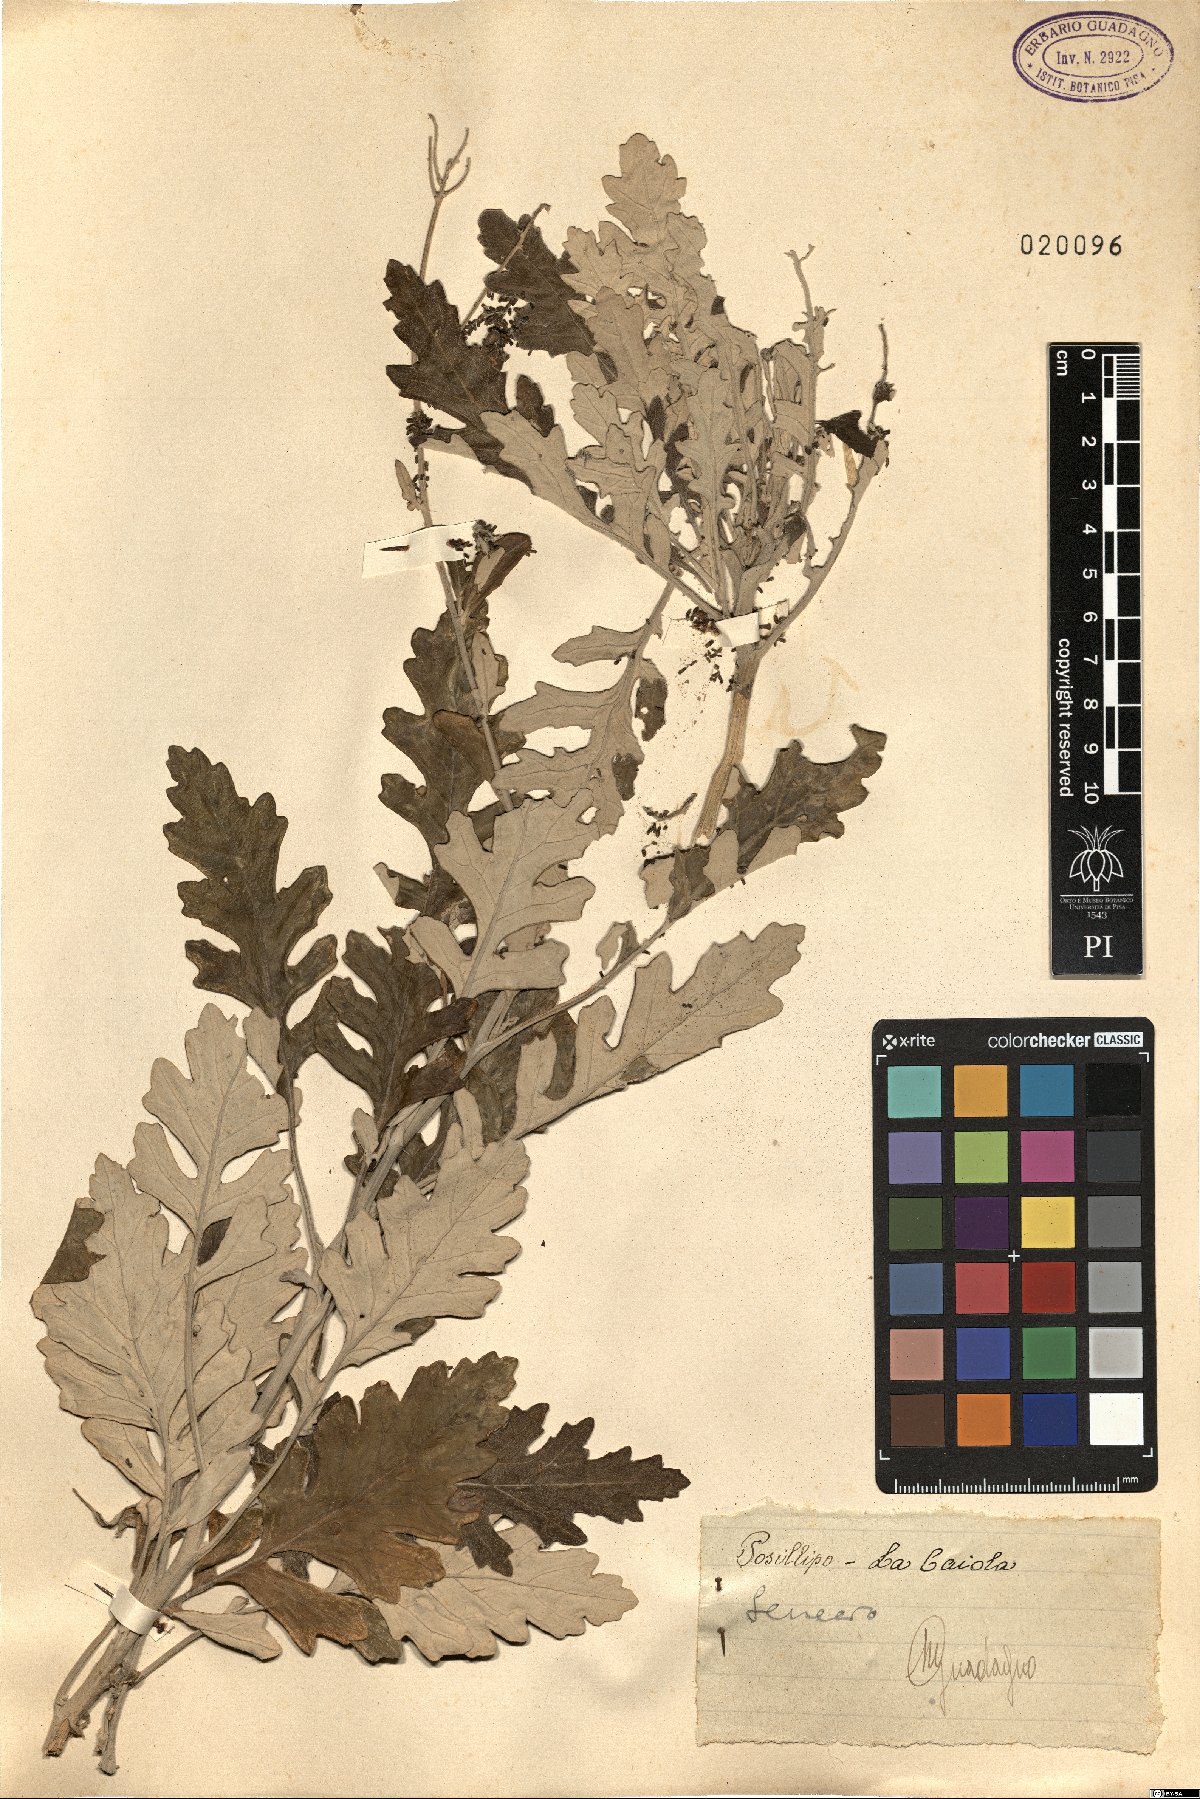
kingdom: Plantae
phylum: Tracheophyta
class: Magnoliopsida
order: Asterales
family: Asteraceae
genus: Senecio
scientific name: Senecio
